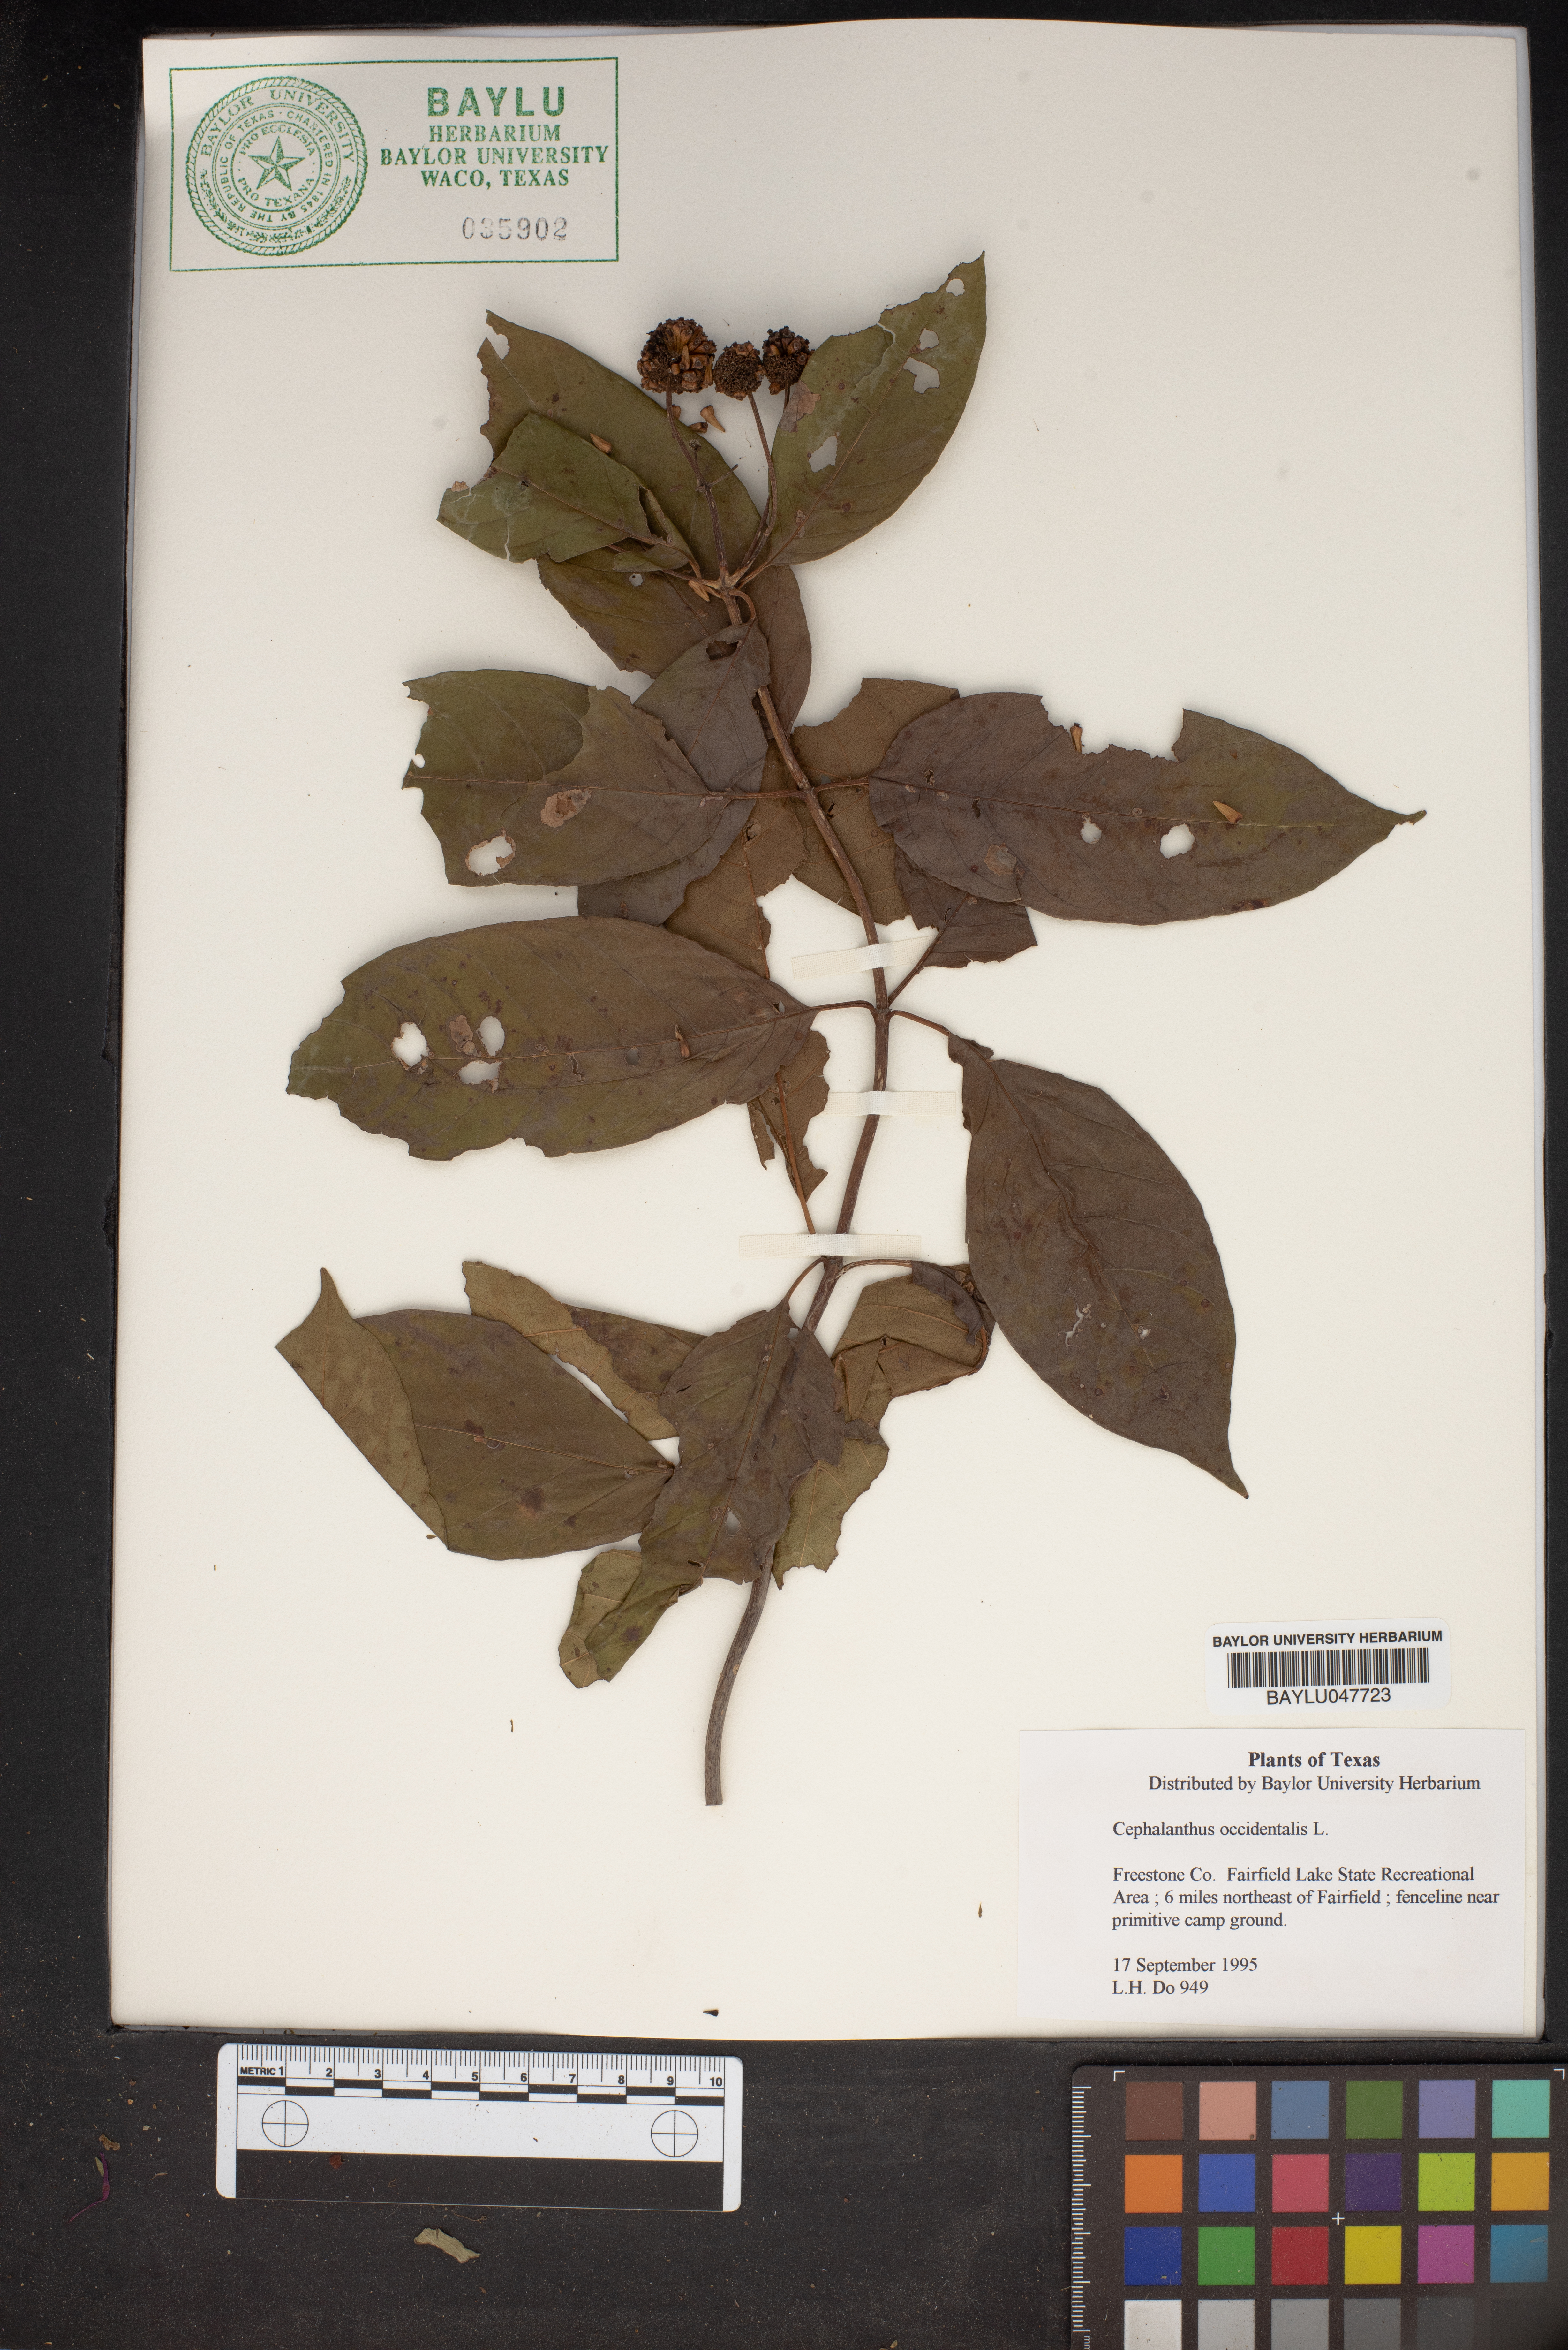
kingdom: Plantae
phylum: Tracheophyta
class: Magnoliopsida
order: Gentianales
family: Rubiaceae
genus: Cephalanthus
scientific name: Cephalanthus occidentalis
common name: Button-willow
